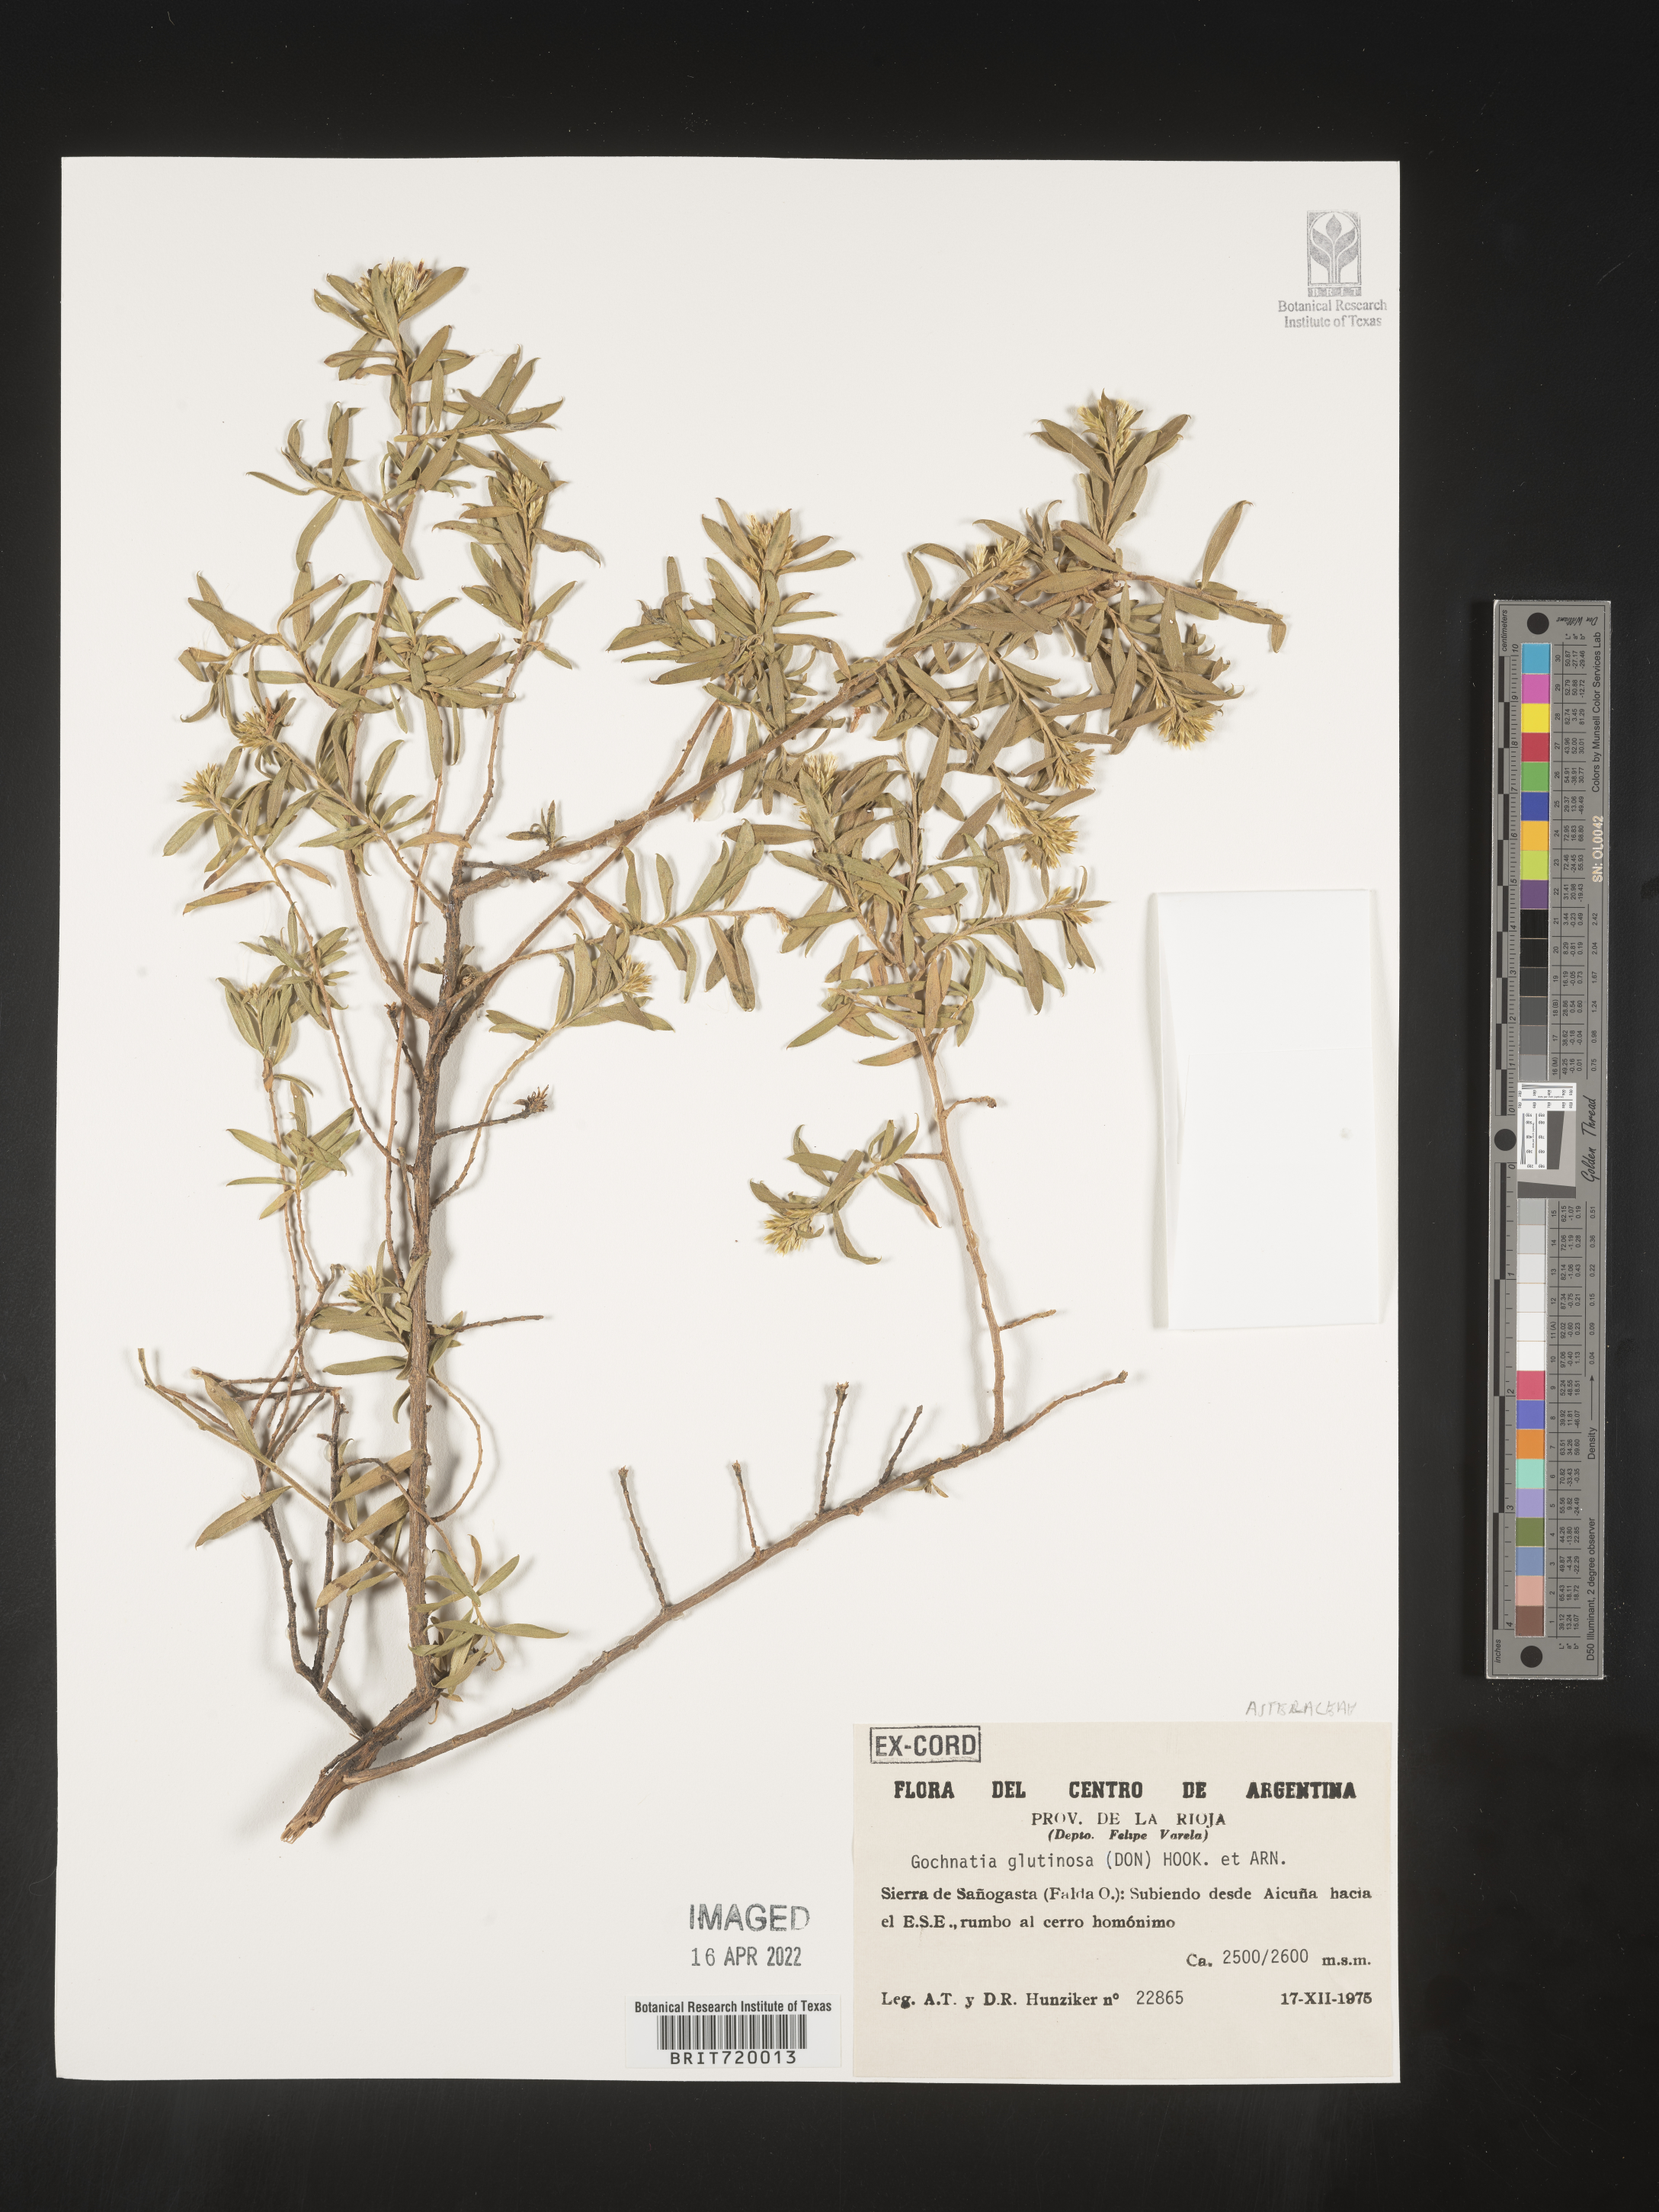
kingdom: Plantae
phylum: Tracheophyta
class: Magnoliopsida
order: Asterales
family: Asteraceae
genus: Gochnatia
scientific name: Gochnatia
